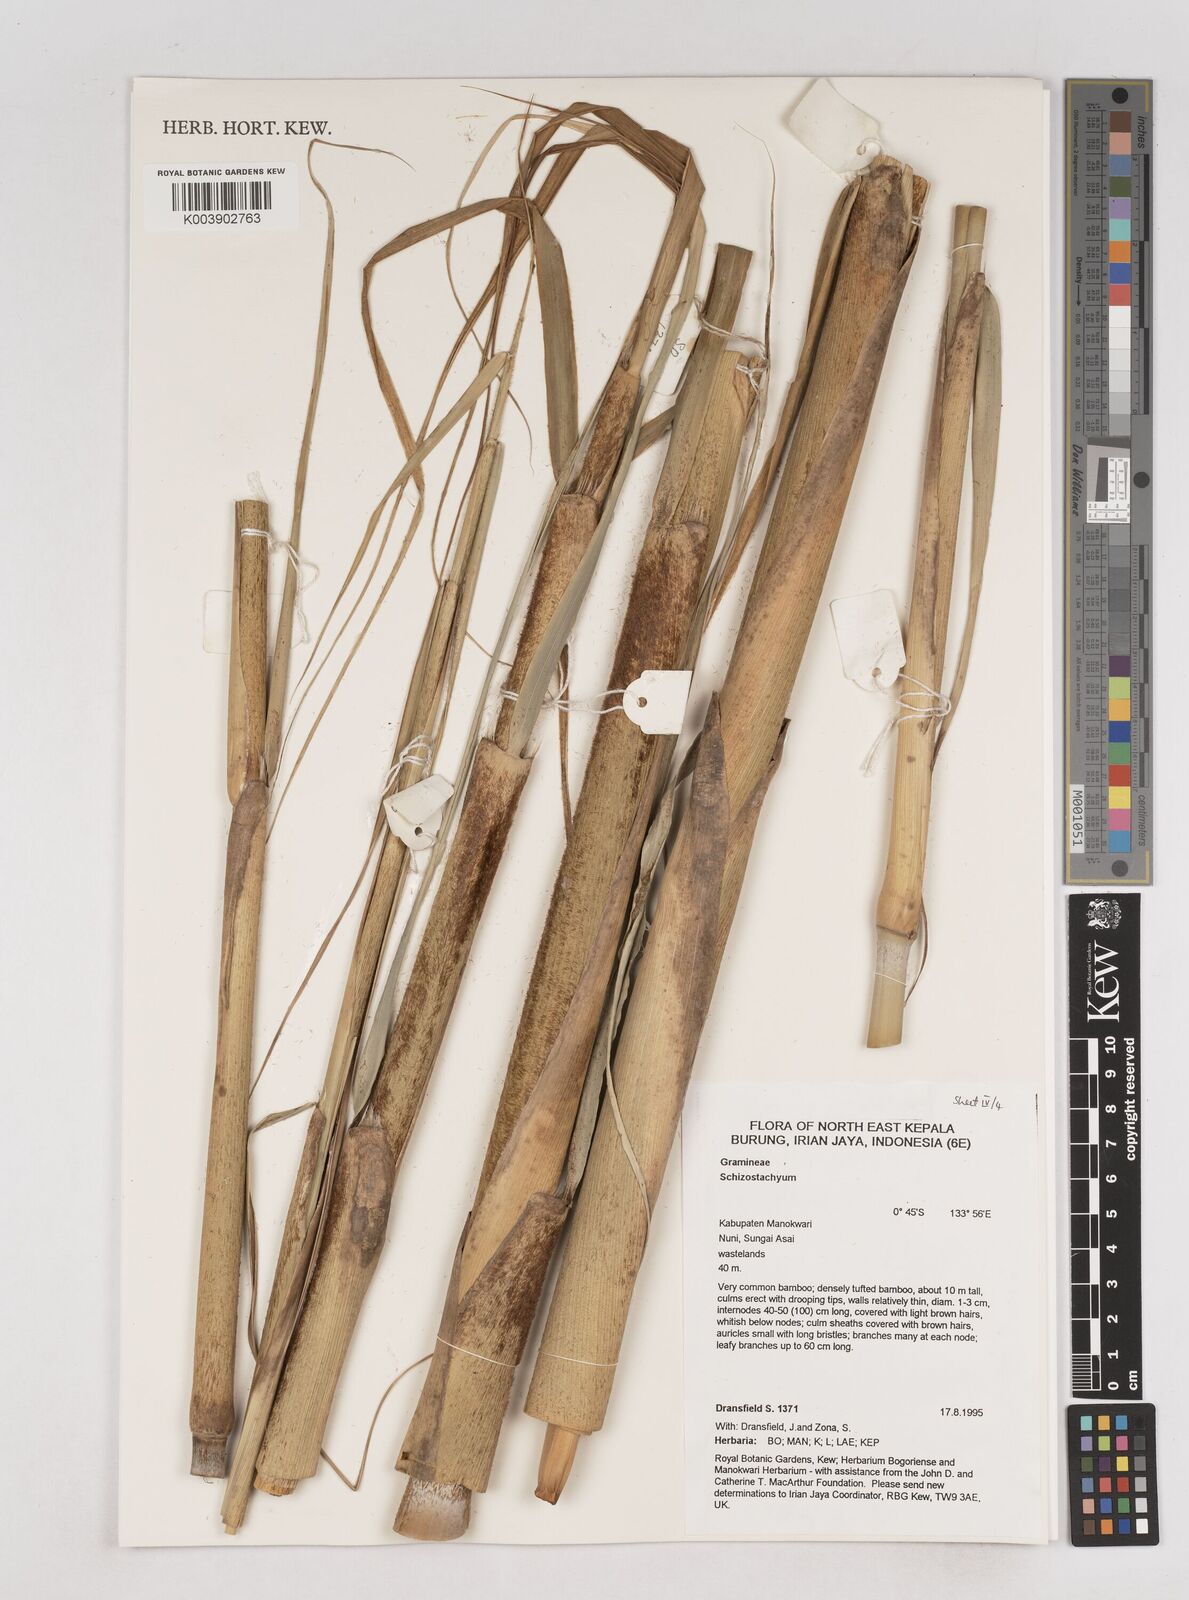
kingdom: Plantae
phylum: Tracheophyta
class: Liliopsida
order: Poales
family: Poaceae
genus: Schizostachyum
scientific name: Schizostachyum
